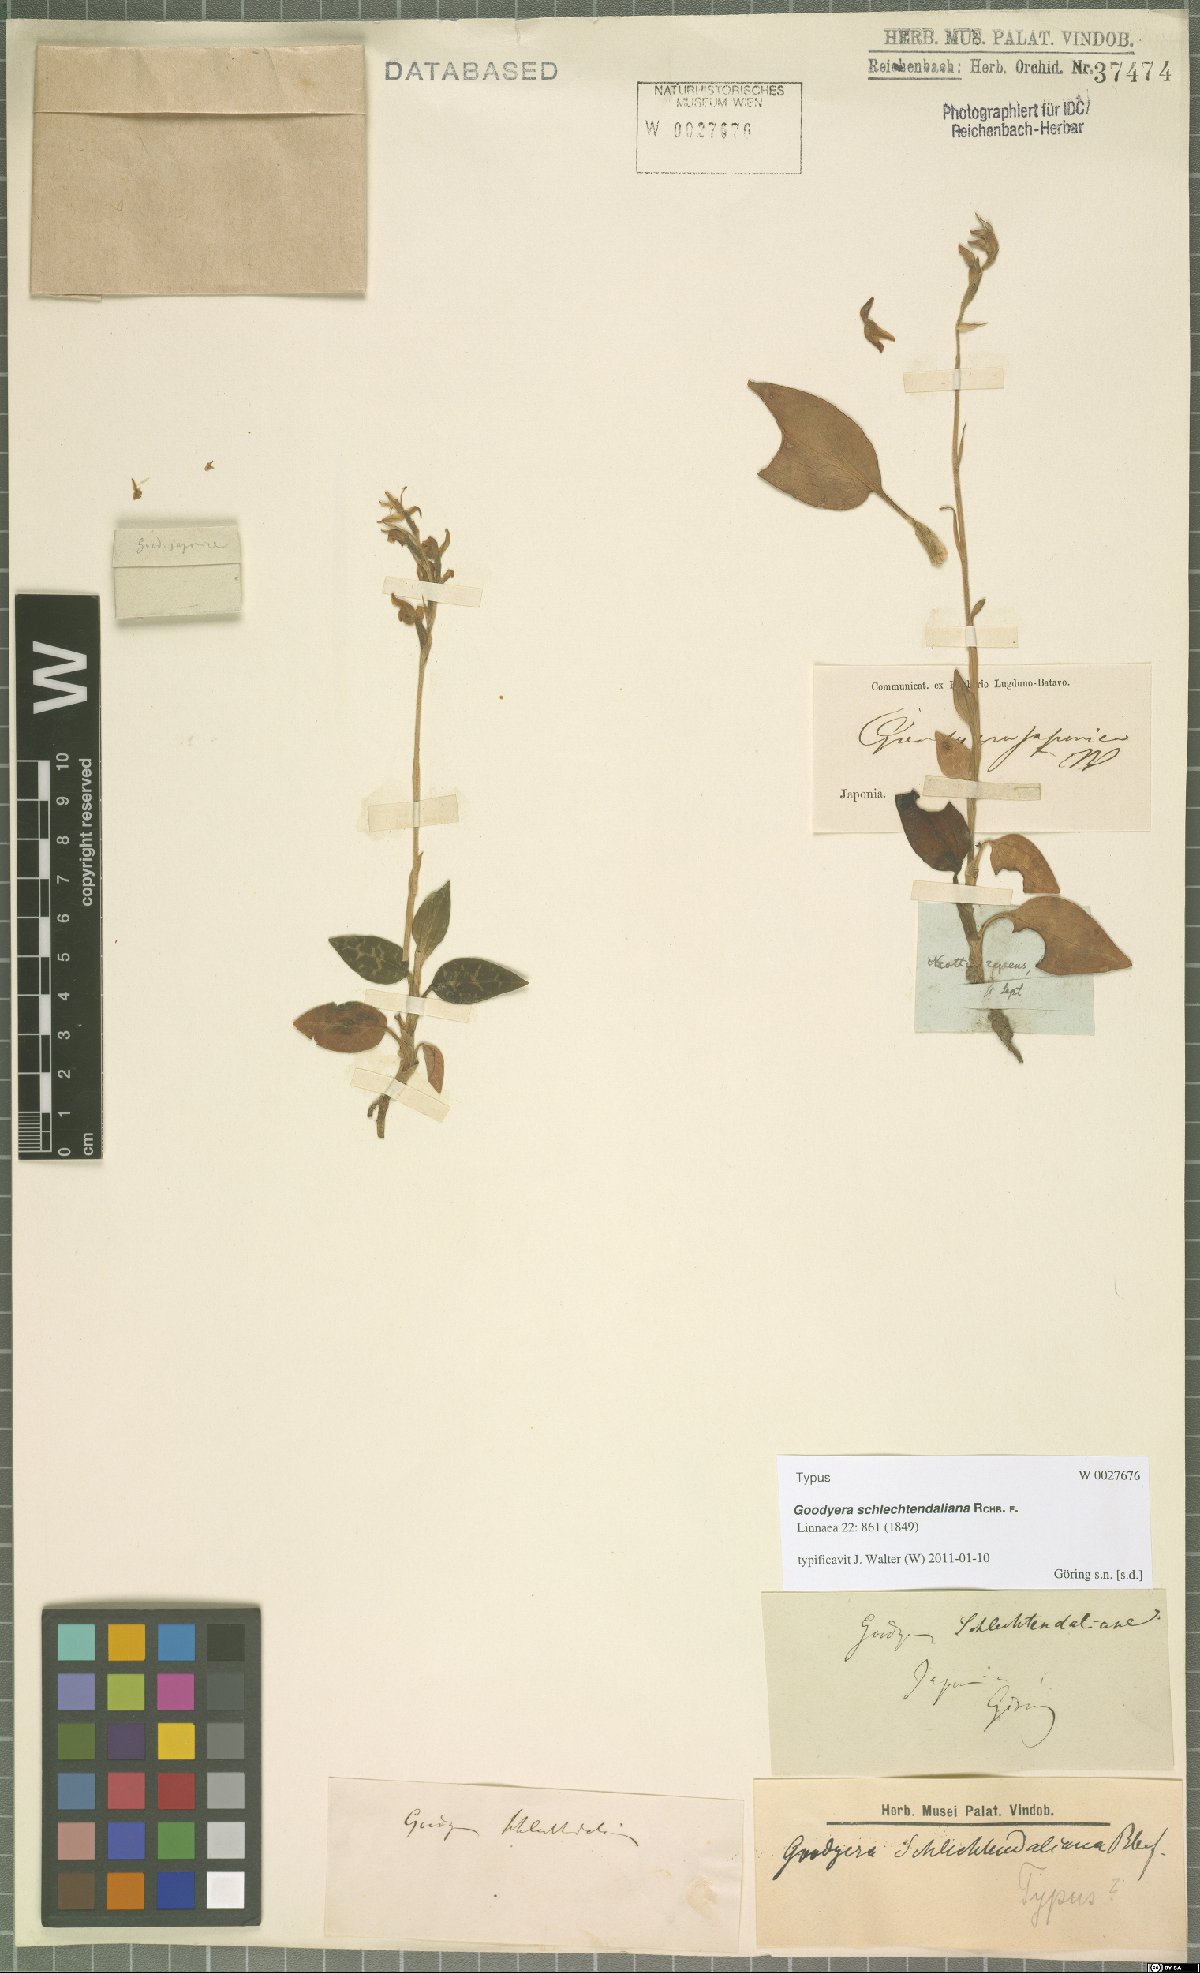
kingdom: Plantae
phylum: Tracheophyta
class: Liliopsida
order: Asparagales
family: Orchidaceae
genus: Goodyera
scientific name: Goodyera schlechtendaliana
